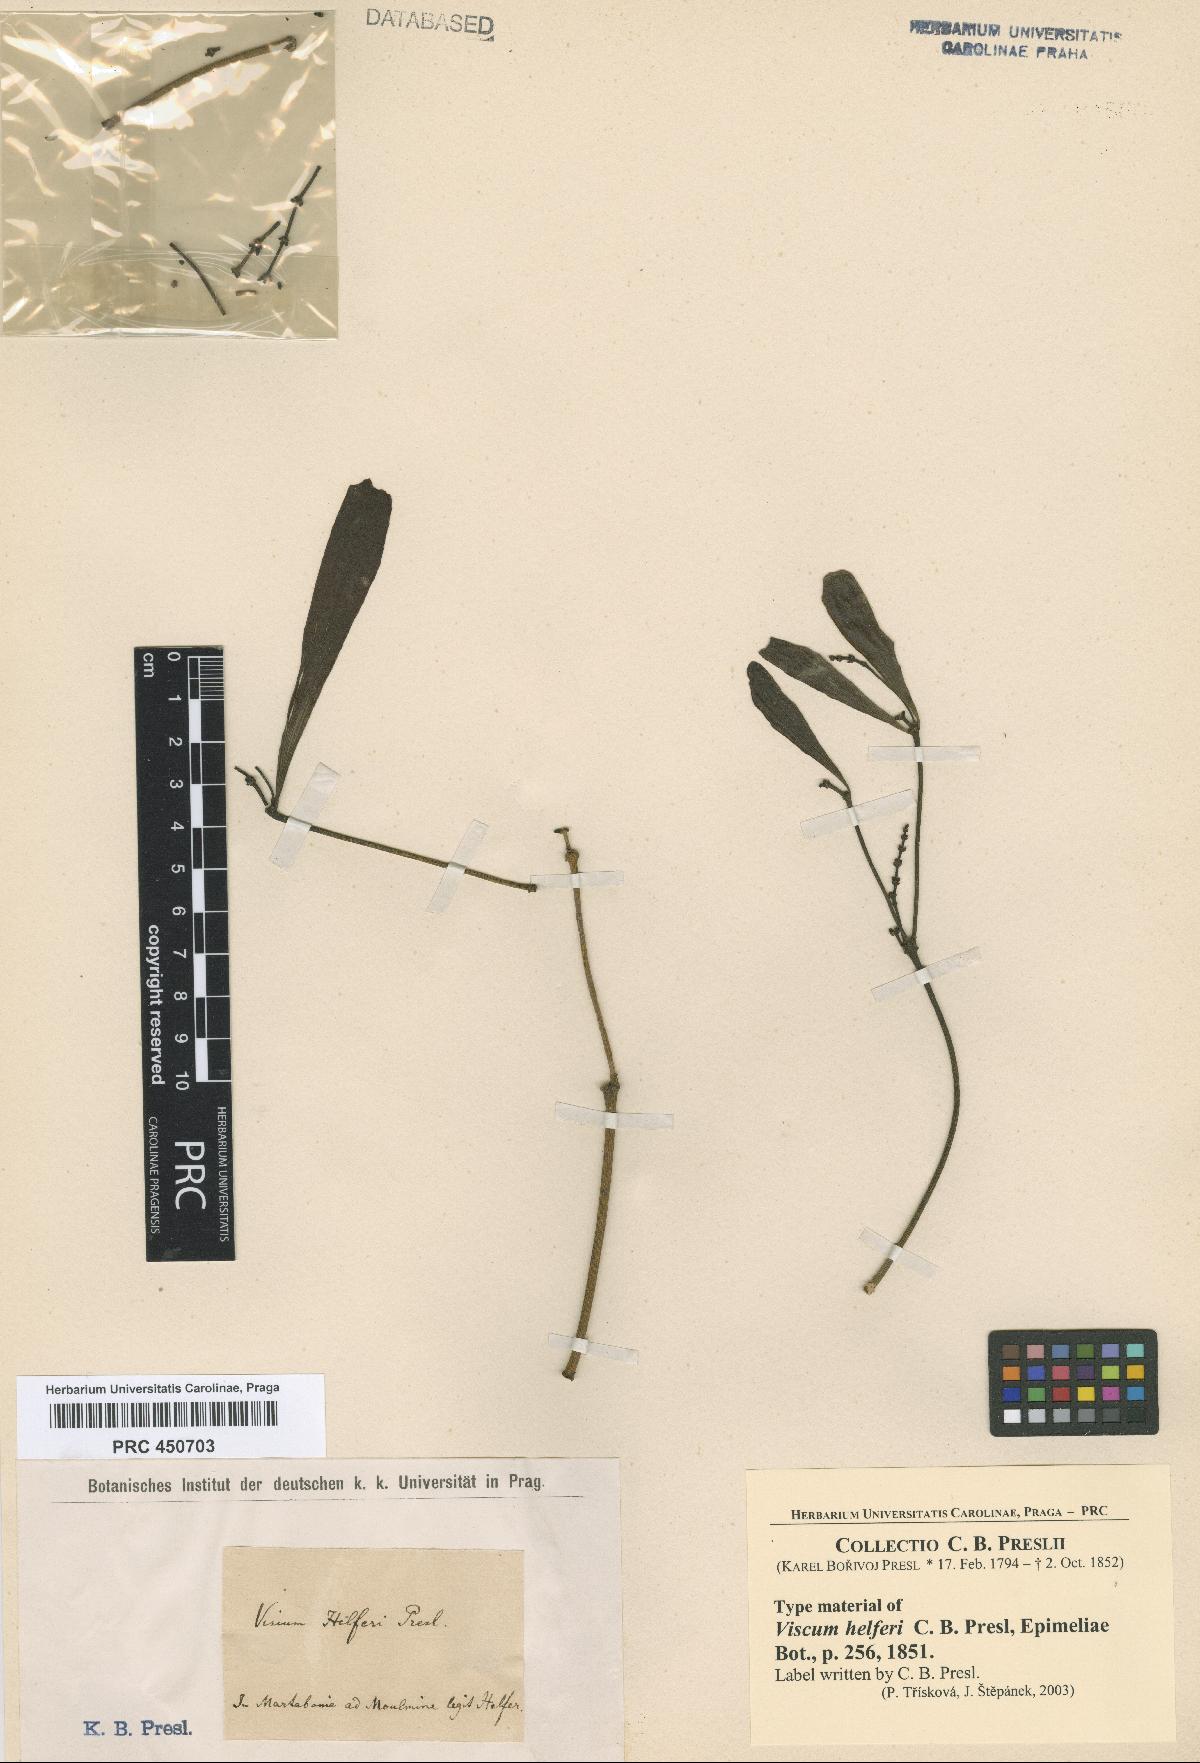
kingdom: Plantae
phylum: Tracheophyta
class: Magnoliopsida
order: Santalales
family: Viscaceae
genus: Viscum
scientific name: Viscum
